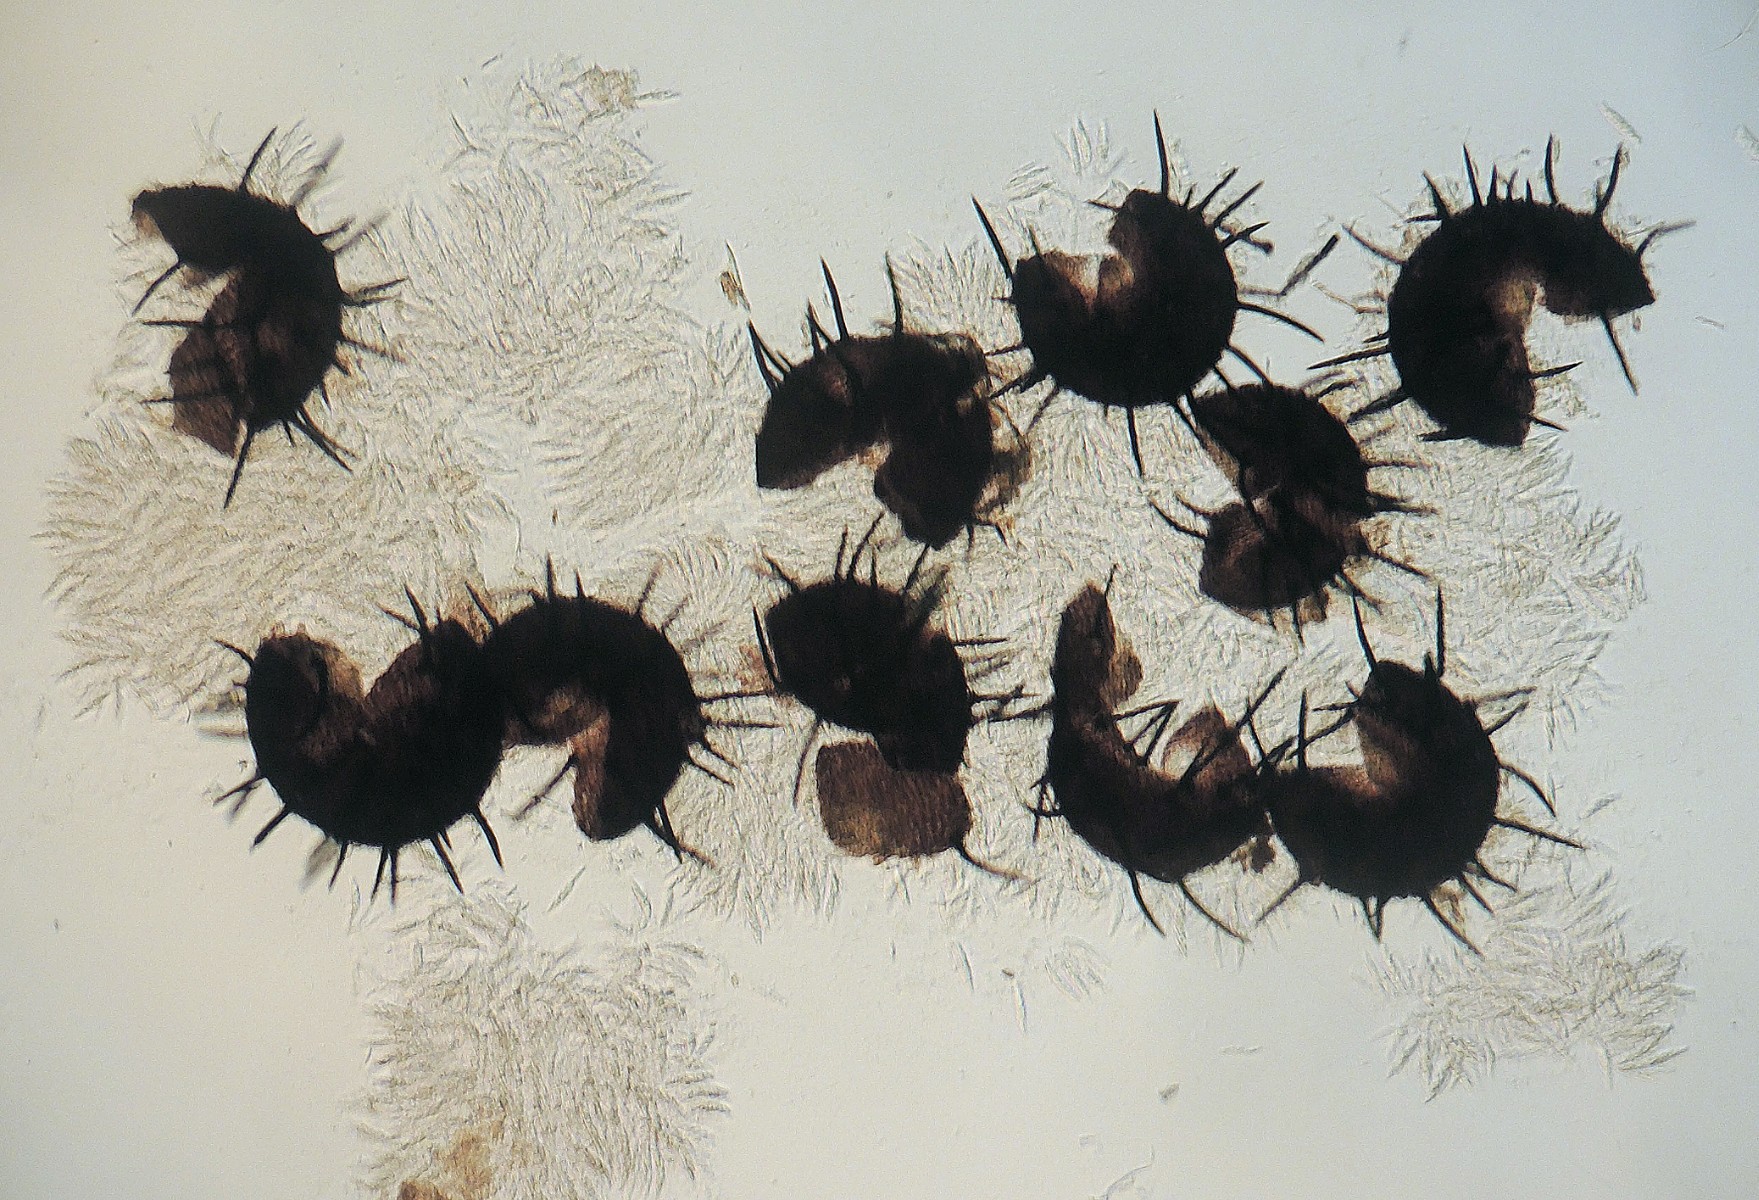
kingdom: Fungi
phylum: Ascomycota
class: Sordariomycetes
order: Hypocreales
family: Niessliaceae
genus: Niesslia
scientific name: Niesslia exosporioides
